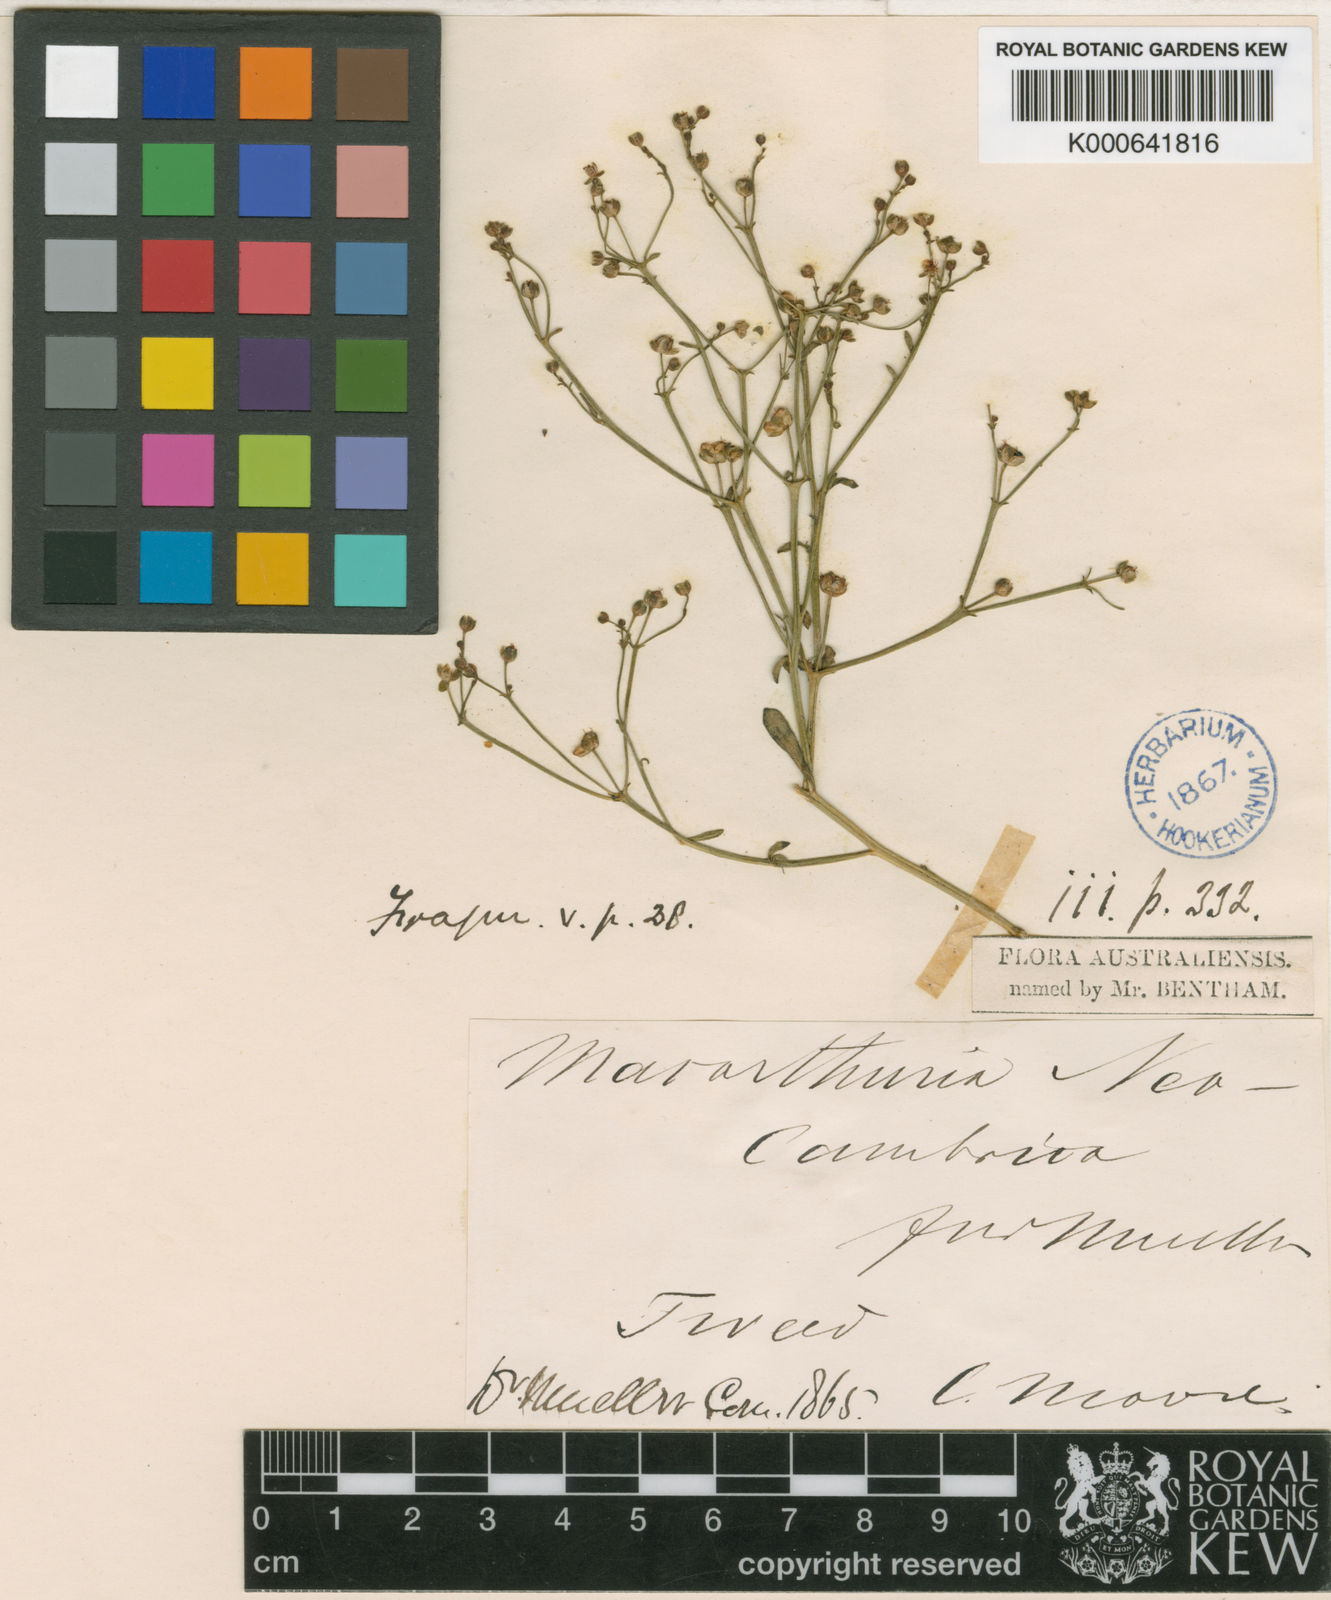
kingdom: Plantae
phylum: Tracheophyta
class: Magnoliopsida
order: Caryophyllales
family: Macarthuriaceae
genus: Macarthuria
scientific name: Macarthuria neocambrica
